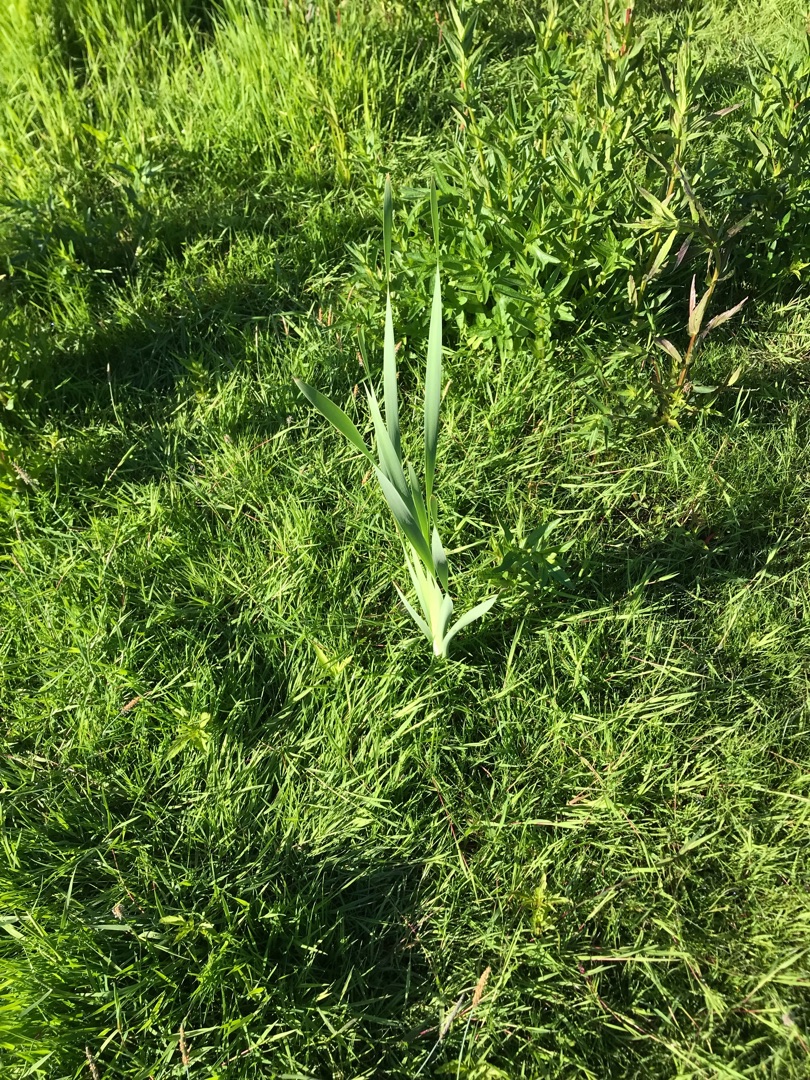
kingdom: Plantae
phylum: Tracheophyta
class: Liliopsida
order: Poales
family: Typhaceae
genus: Typha
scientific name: Typha latifolia
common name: Bredbladet dunhammer
